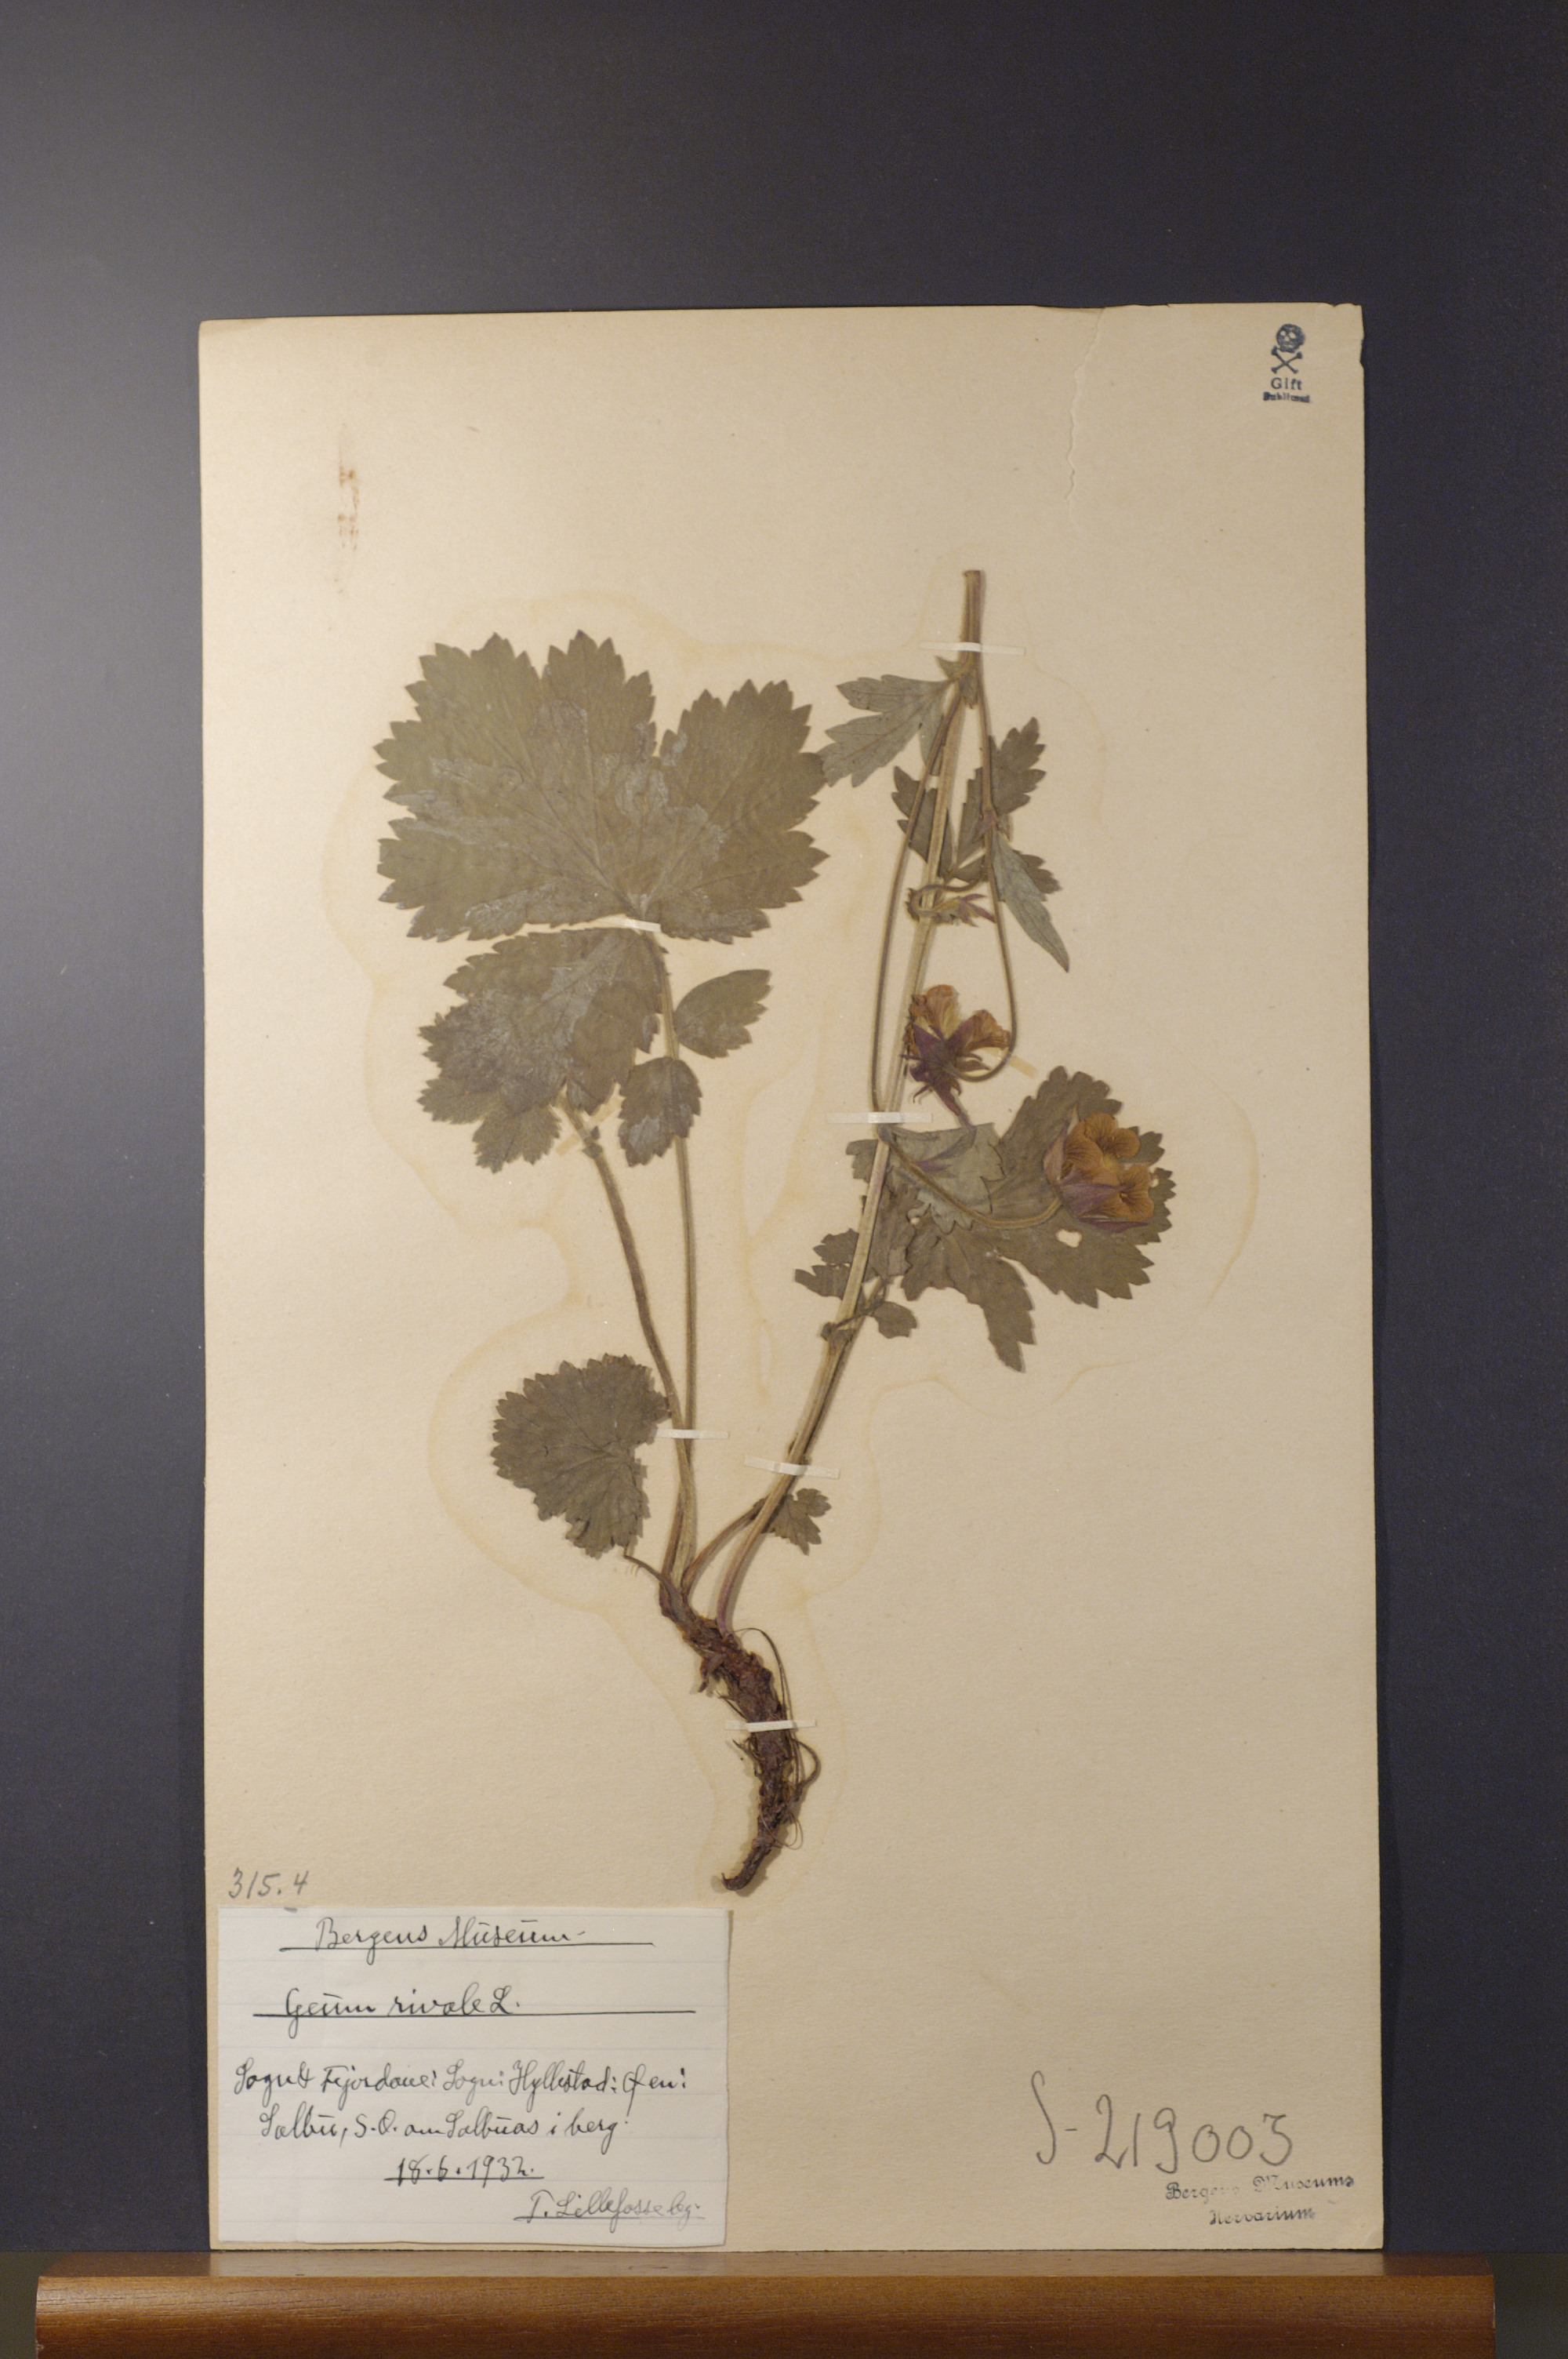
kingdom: Plantae
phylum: Tracheophyta
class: Magnoliopsida
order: Rosales
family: Rosaceae
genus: Geum
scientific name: Geum rivale
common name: Water avens
